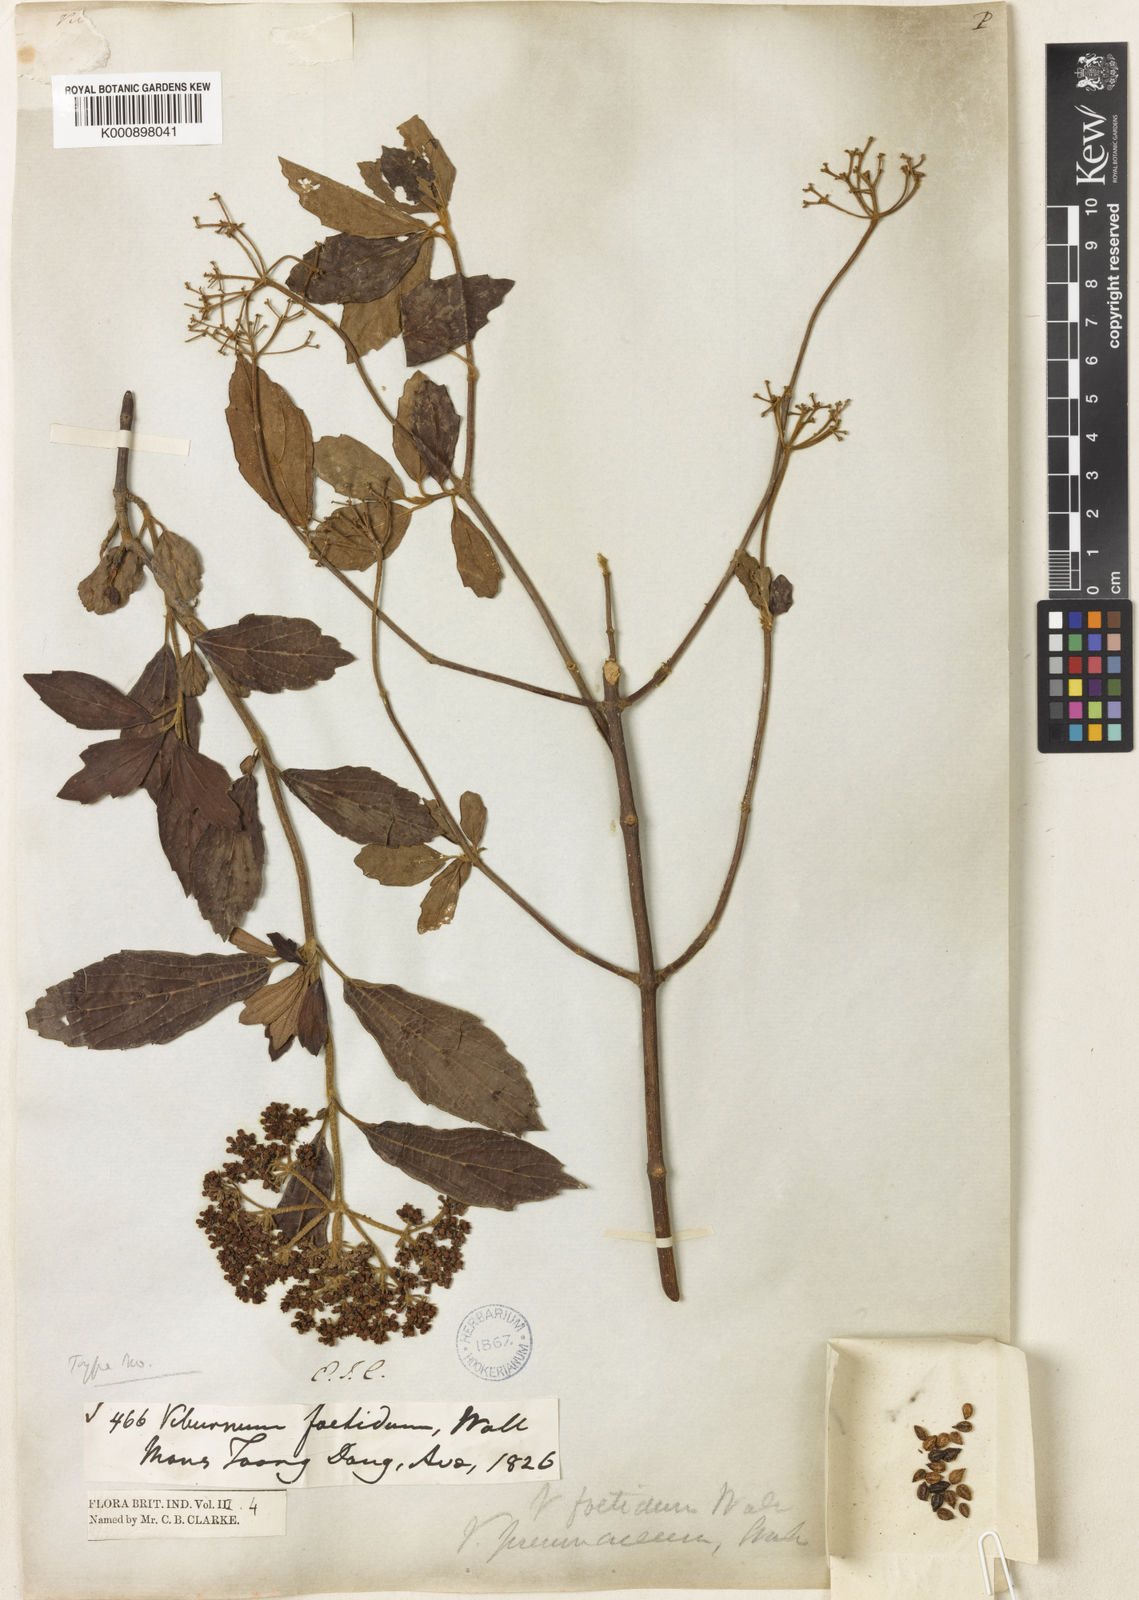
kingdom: Plantae
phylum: Tracheophyta
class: Magnoliopsida
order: Dipsacales
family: Viburnaceae
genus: Viburnum
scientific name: Viburnum foetidum
